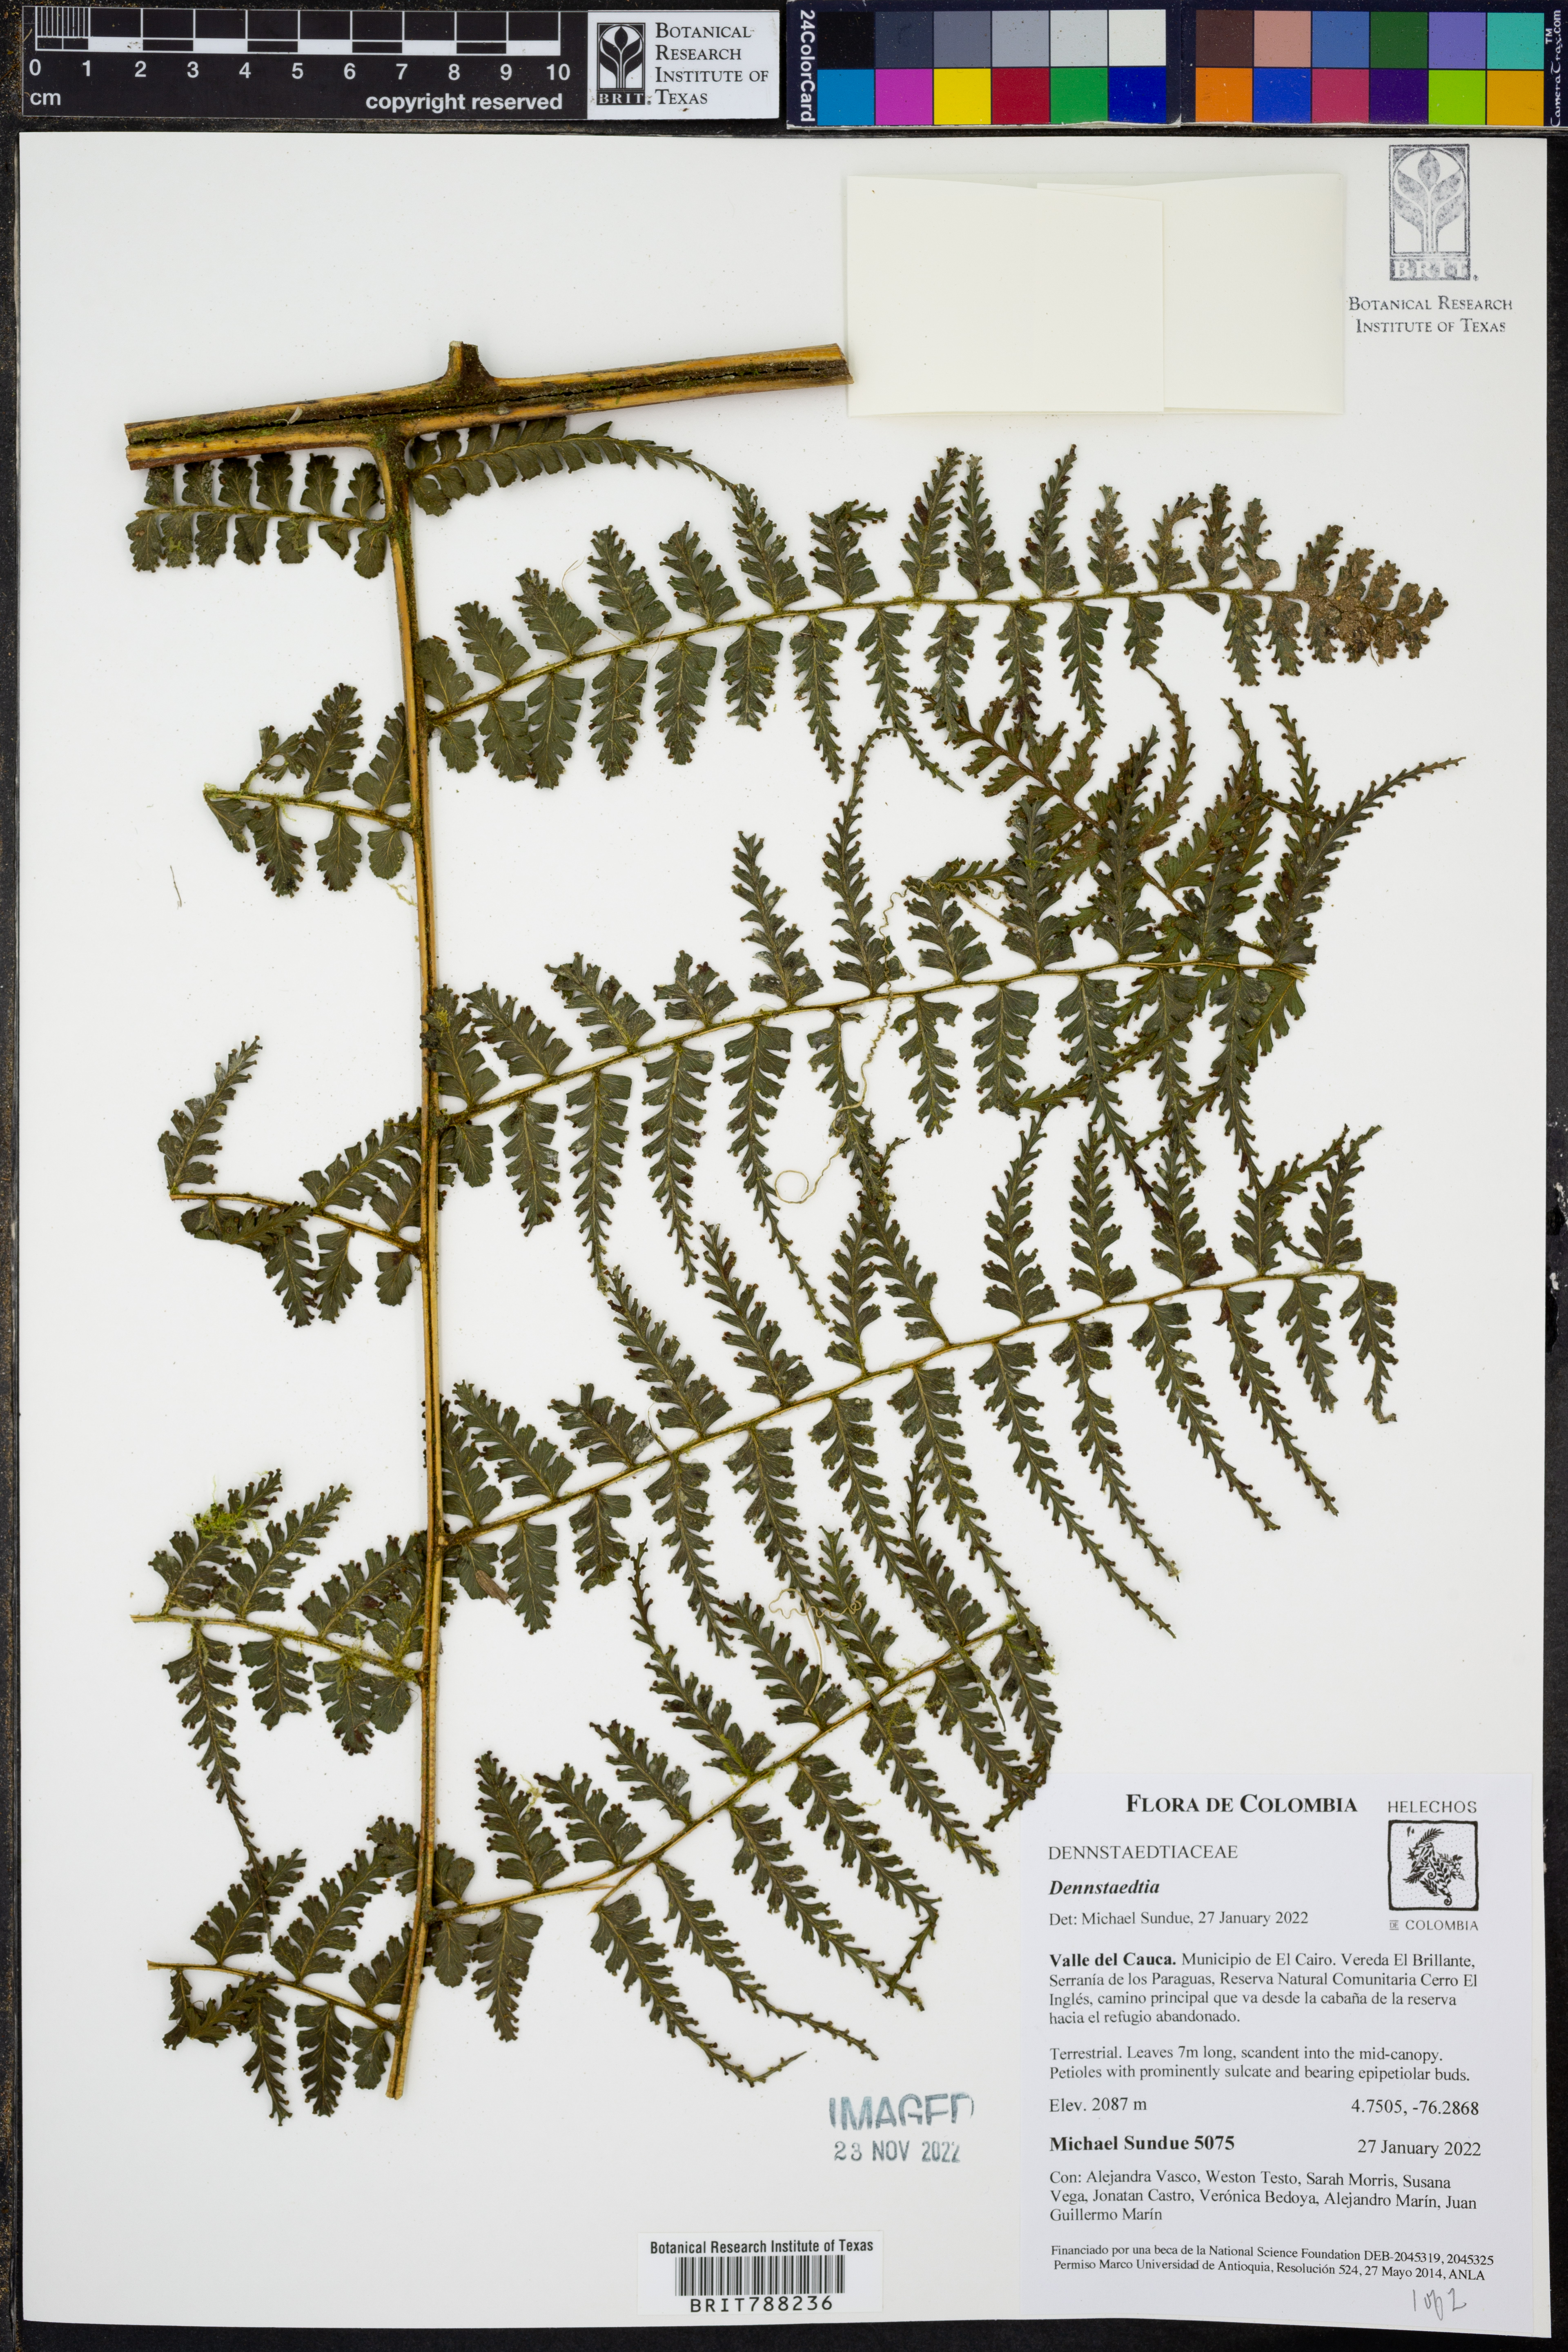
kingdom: Plantae
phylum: Tracheophyta
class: Polypodiopsida
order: Polypodiales
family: Dennstaedtiaceae
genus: Dennstaedtia
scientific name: Dennstaedtia producta
